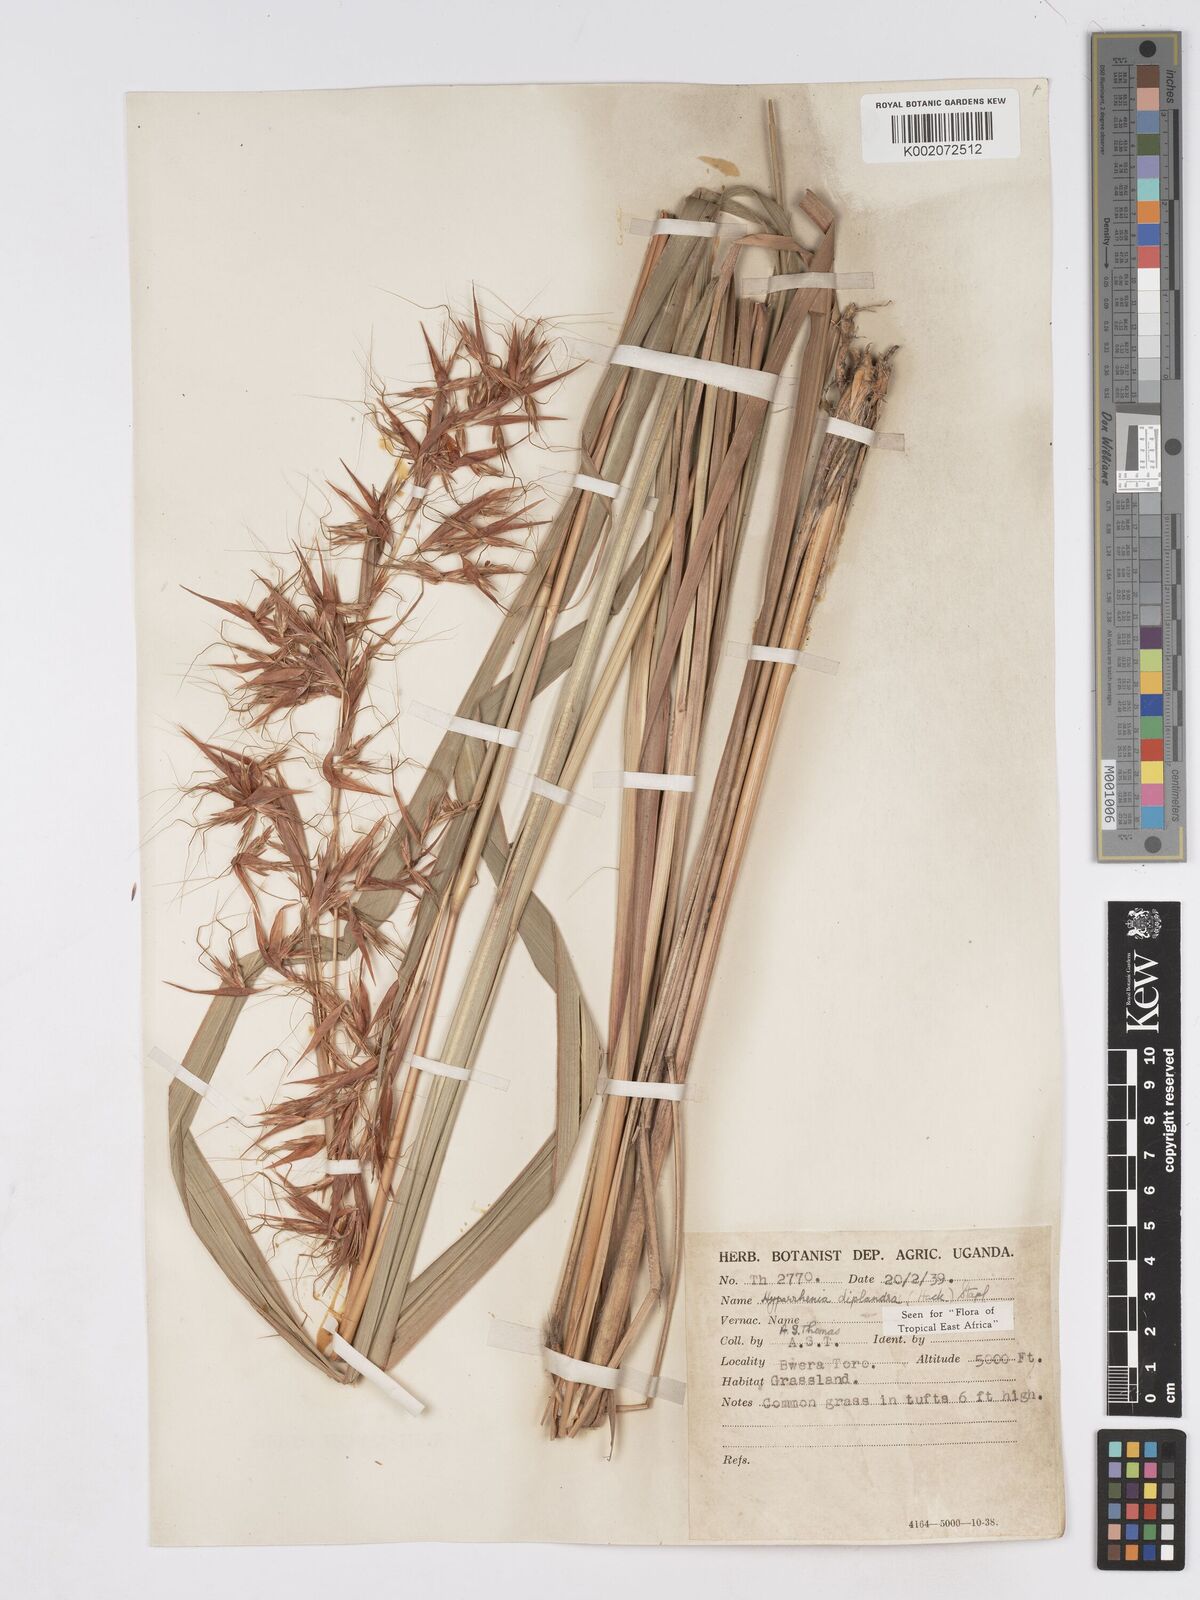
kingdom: Plantae
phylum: Tracheophyta
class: Liliopsida
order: Poales
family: Poaceae
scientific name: Poaceae
